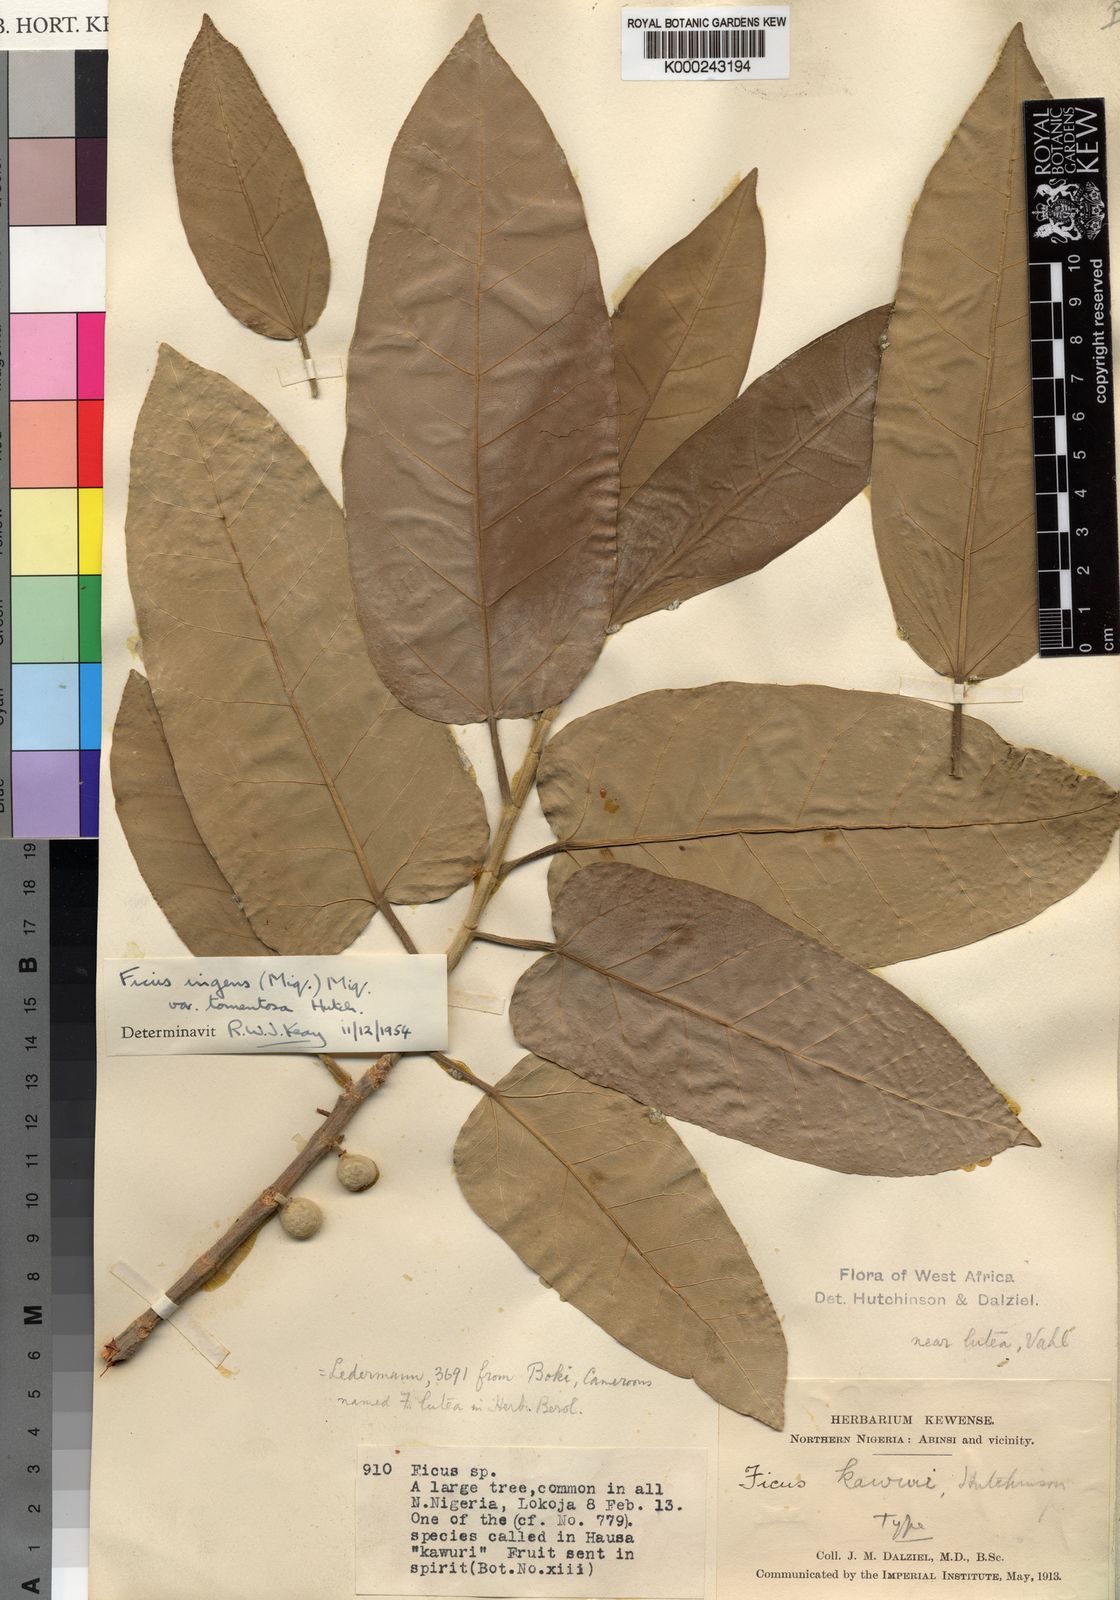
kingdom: Plantae
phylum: Tracheophyta
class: Magnoliopsida
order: Rosales
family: Moraceae
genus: Ficus
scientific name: Ficus ingens
